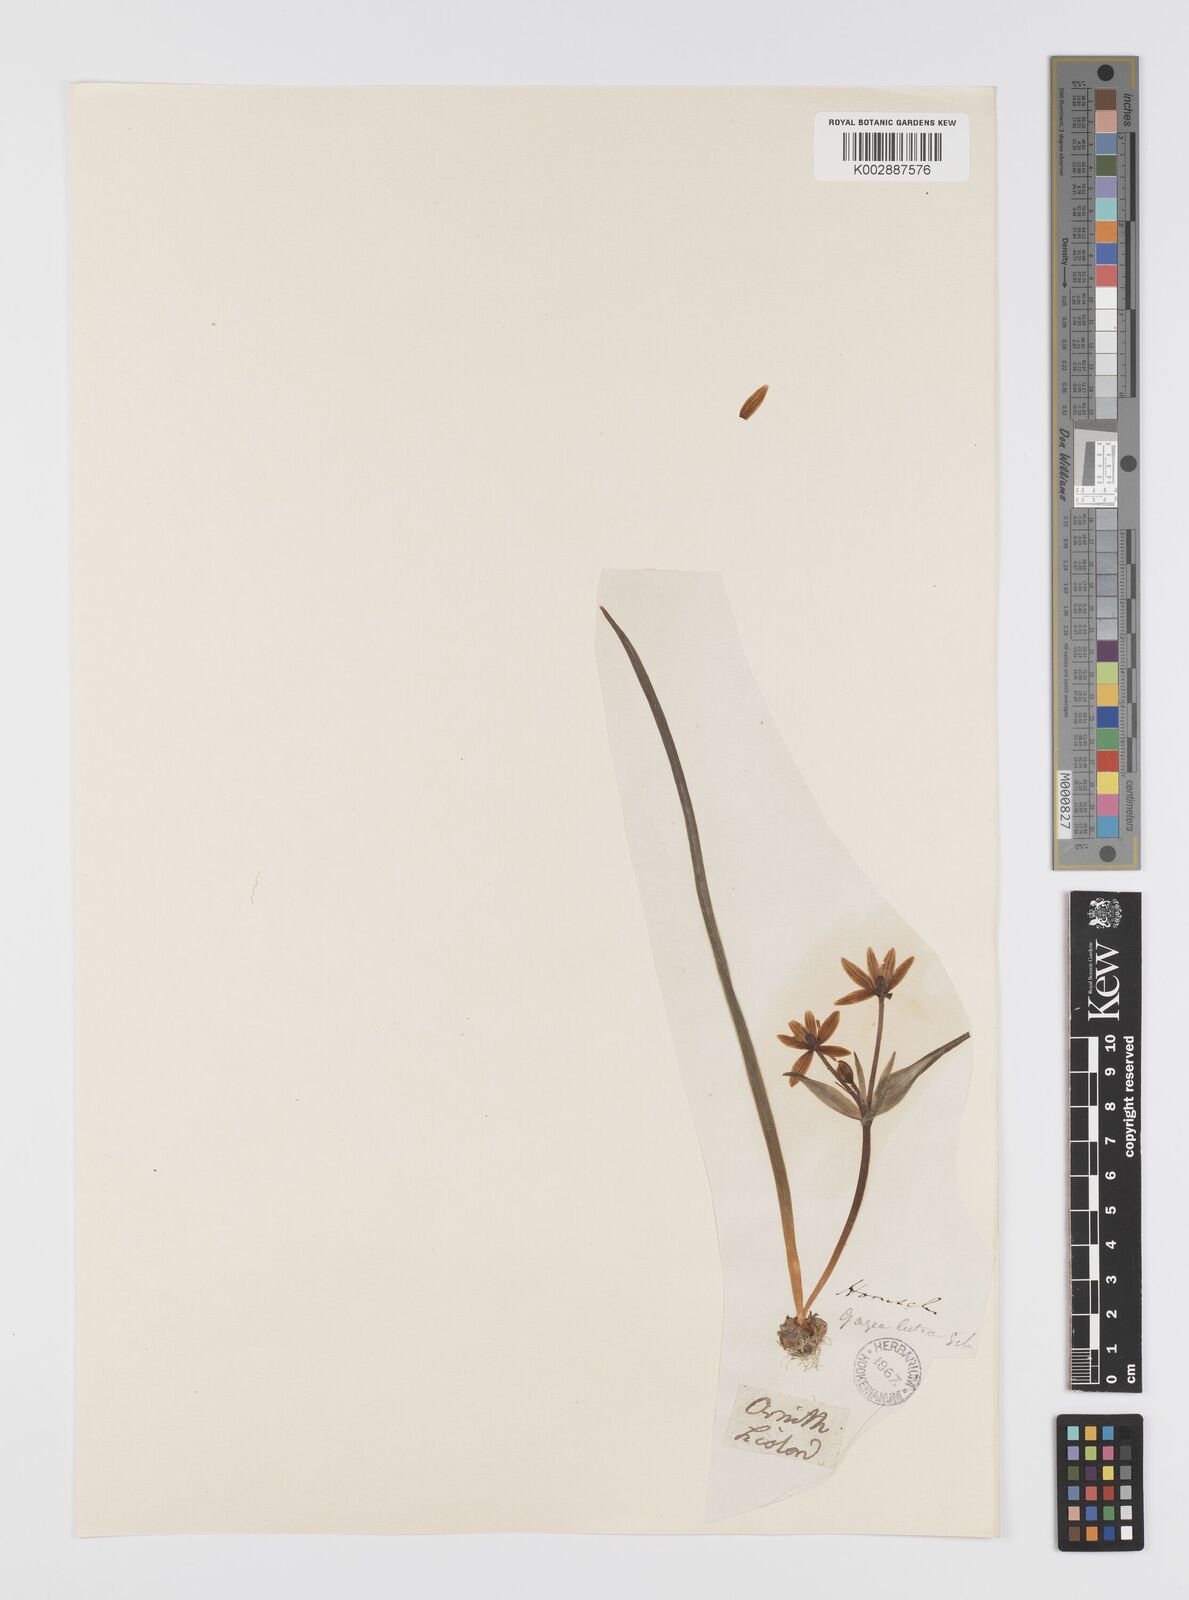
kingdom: Plantae
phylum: Tracheophyta
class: Liliopsida
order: Liliales
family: Liliaceae
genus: Gagea
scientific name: Gagea lutea
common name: Yellow star-of-bethlehem
